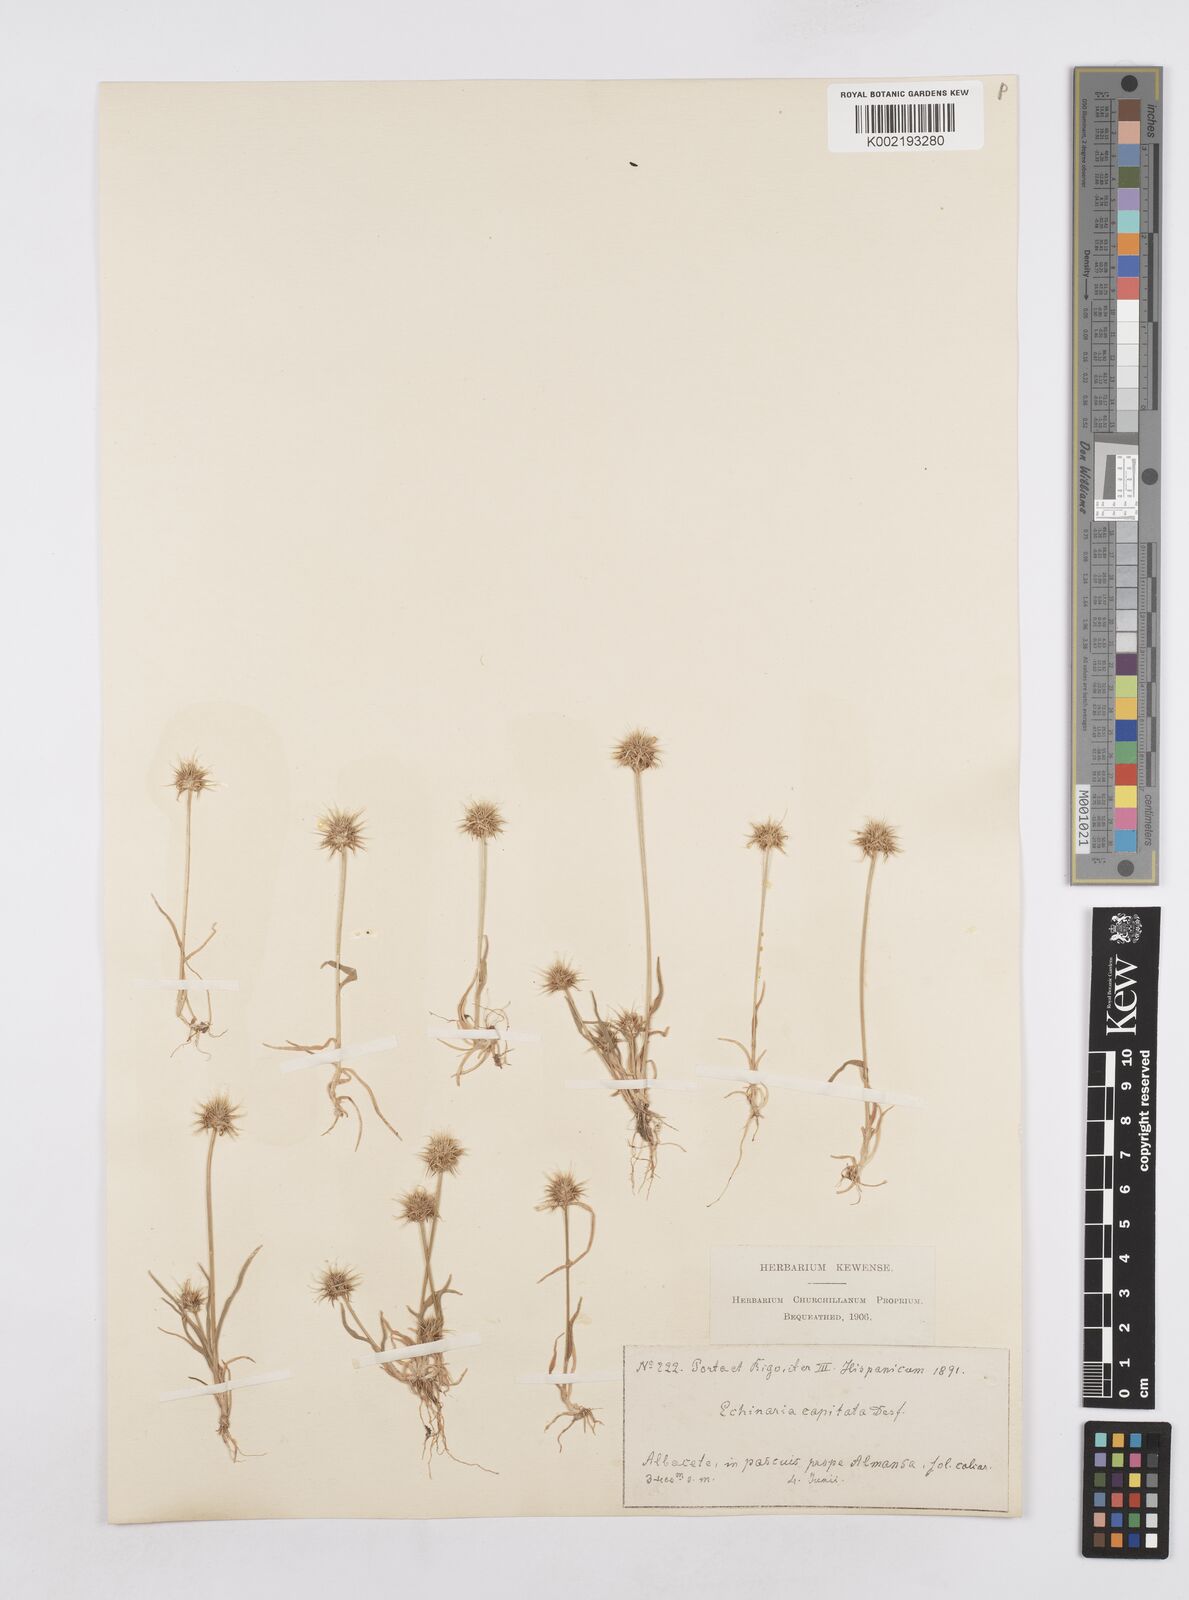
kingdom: Plantae
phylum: Tracheophyta
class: Liliopsida
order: Poales
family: Poaceae
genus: Echinaria
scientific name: Echinaria capitata
